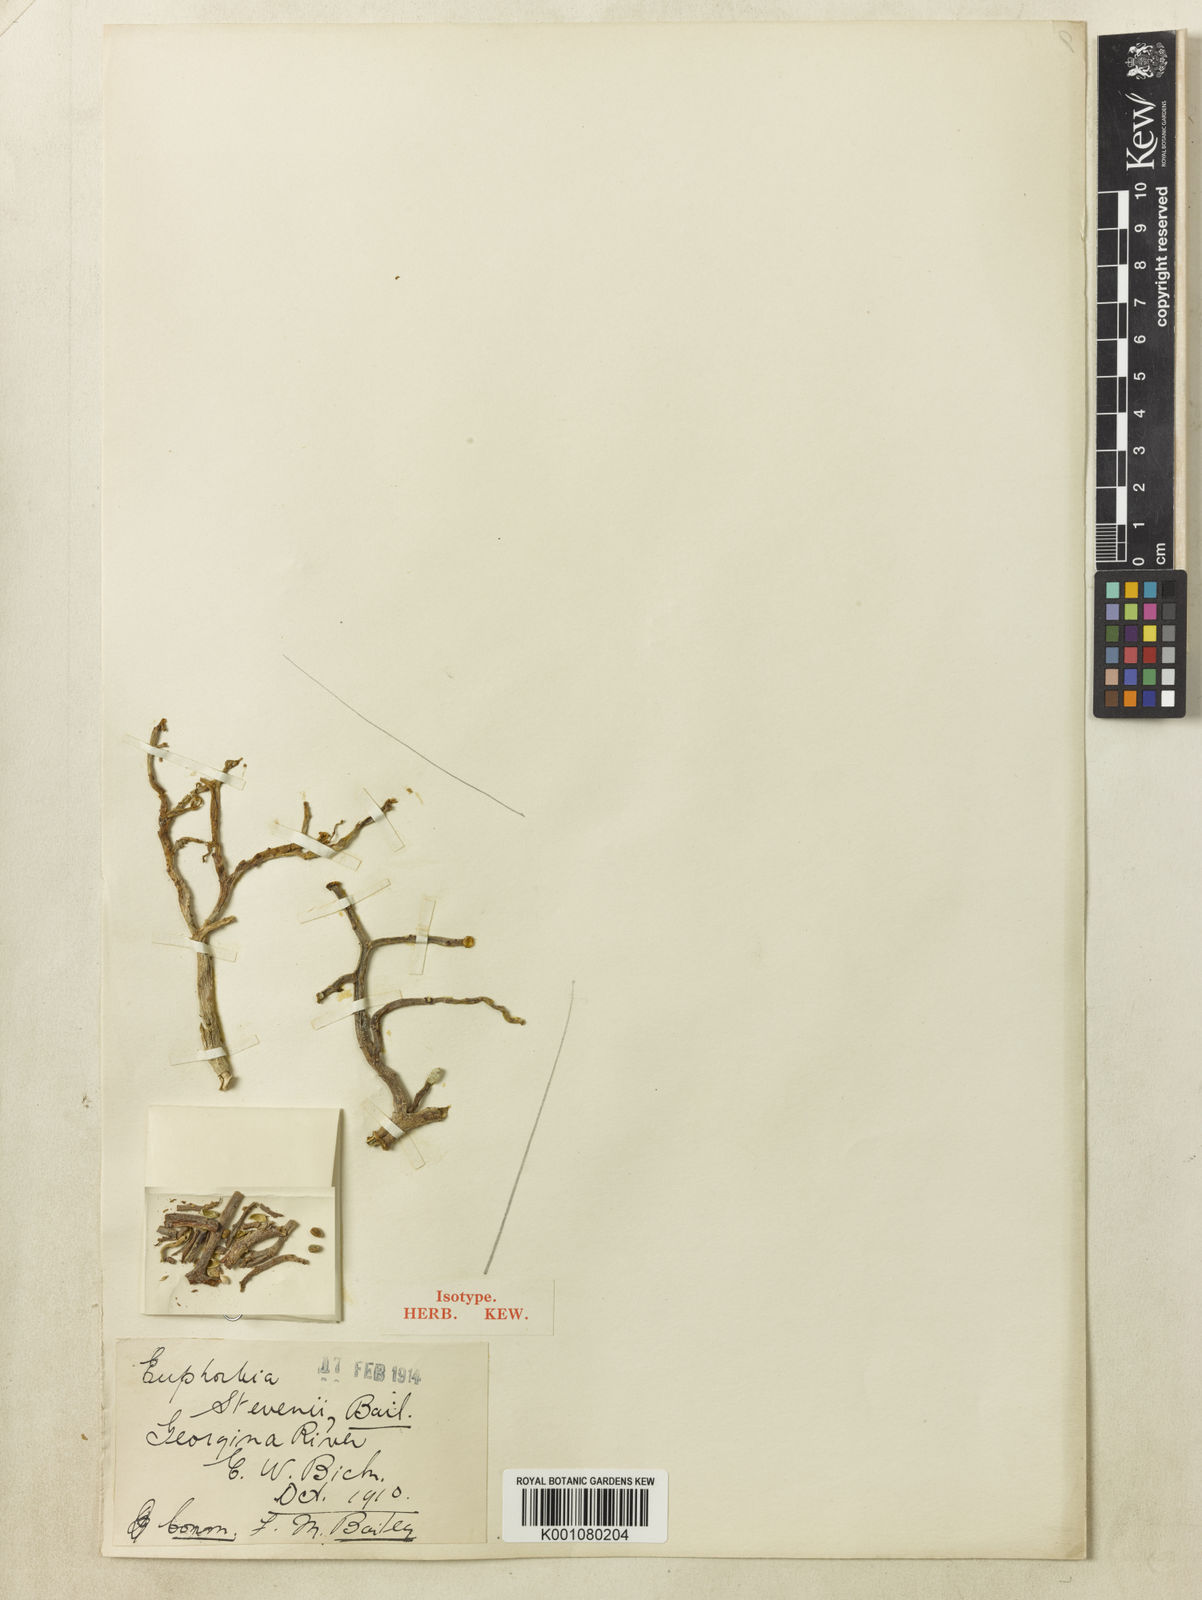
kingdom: Plantae
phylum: Tracheophyta
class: Magnoliopsida
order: Malpighiales
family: Euphorbiaceae
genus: Euphorbia
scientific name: Euphorbia stevenii
